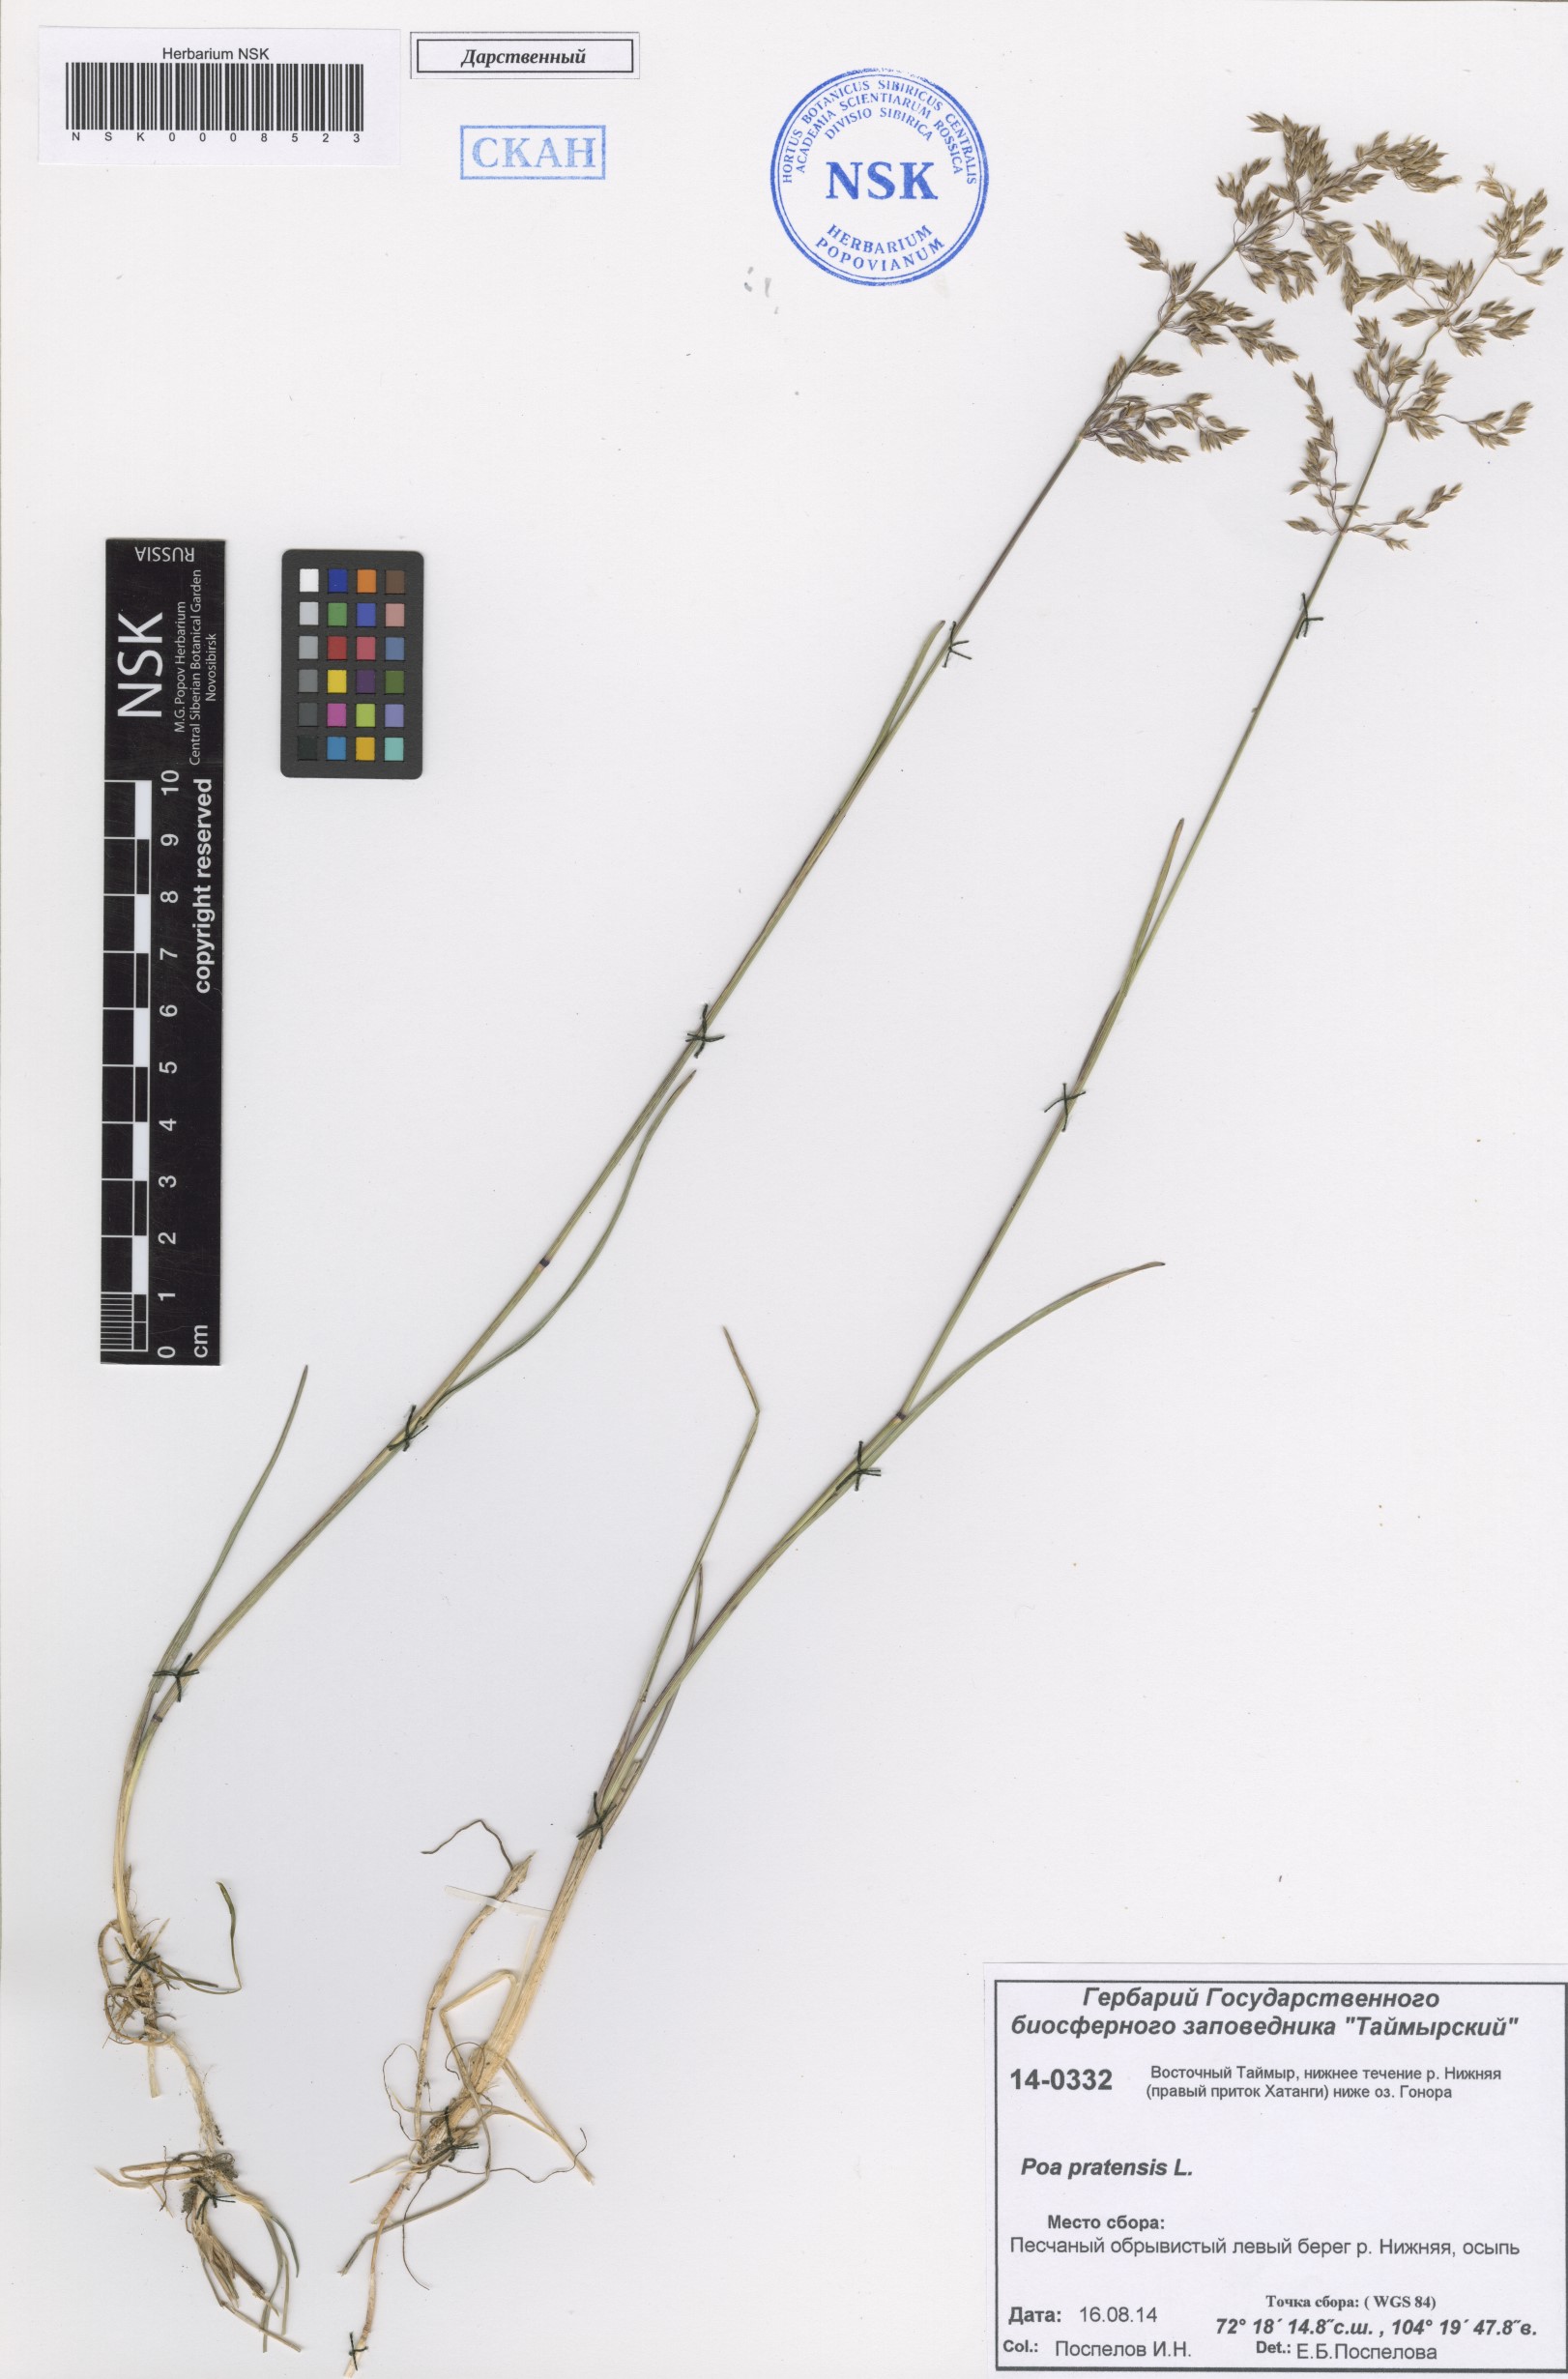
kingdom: Plantae
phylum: Tracheophyta
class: Liliopsida
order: Poales
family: Poaceae
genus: Poa
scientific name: Poa pratensis
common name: Kentucky bluegrass
